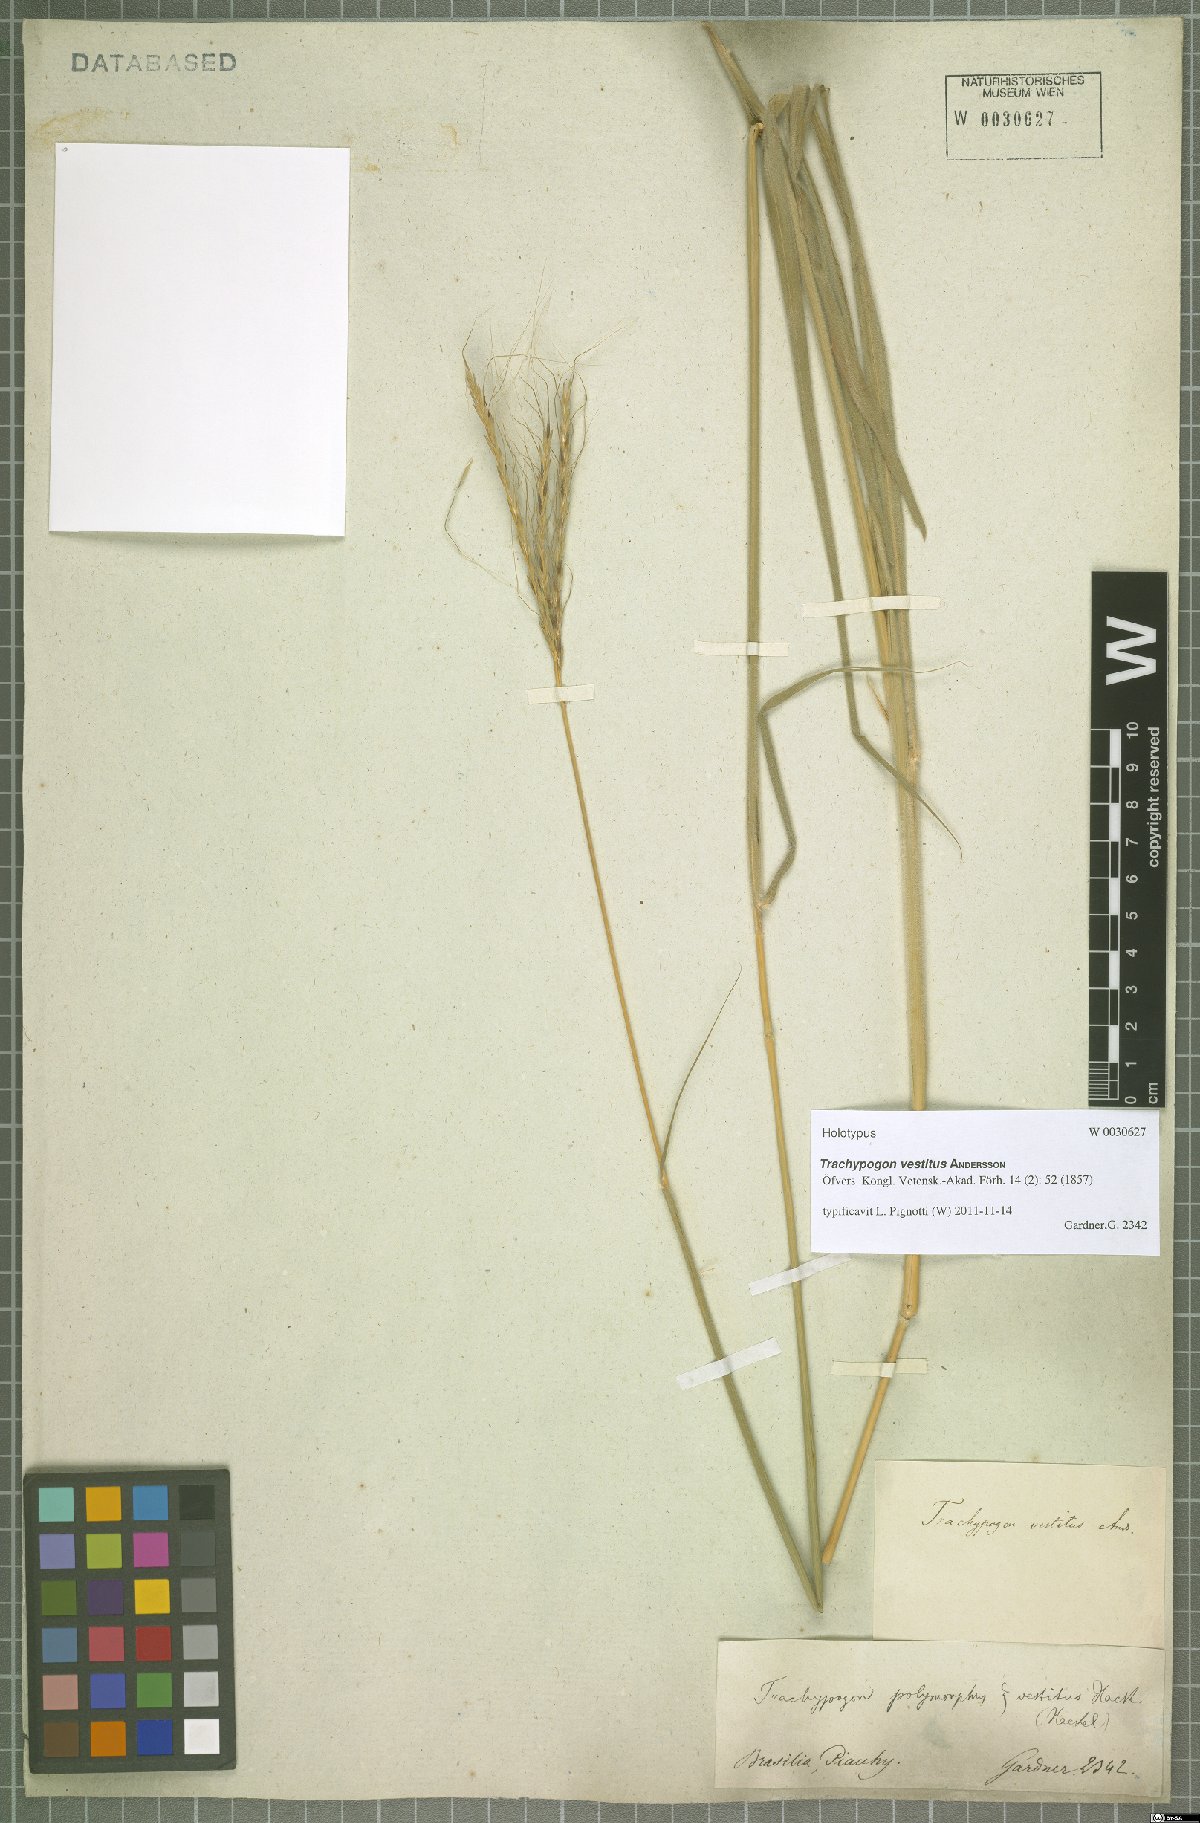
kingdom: Plantae
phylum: Tracheophyta
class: Liliopsida
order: Poales
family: Poaceae
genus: Trachypogon
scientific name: Trachypogon vestitus
